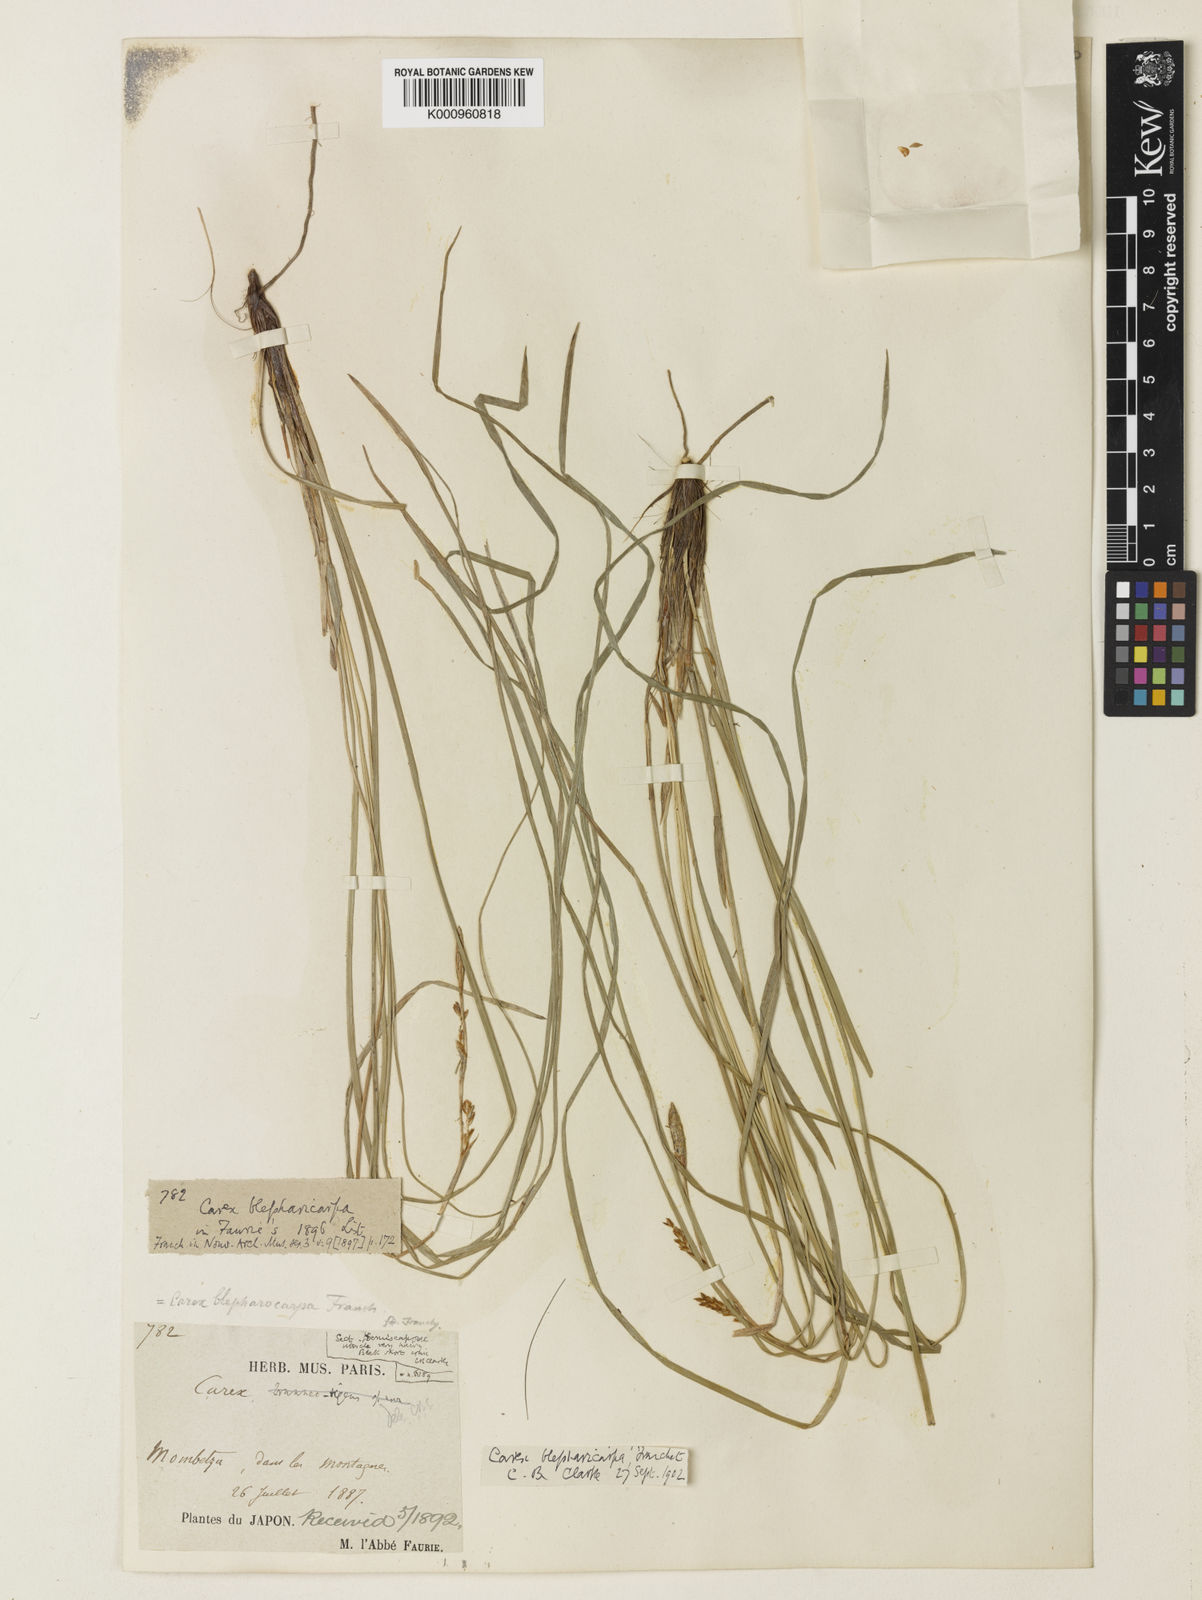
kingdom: Plantae
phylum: Tracheophyta
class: Liliopsida
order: Poales
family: Cyperaceae
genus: Carex
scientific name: Carex blepharicarpa
